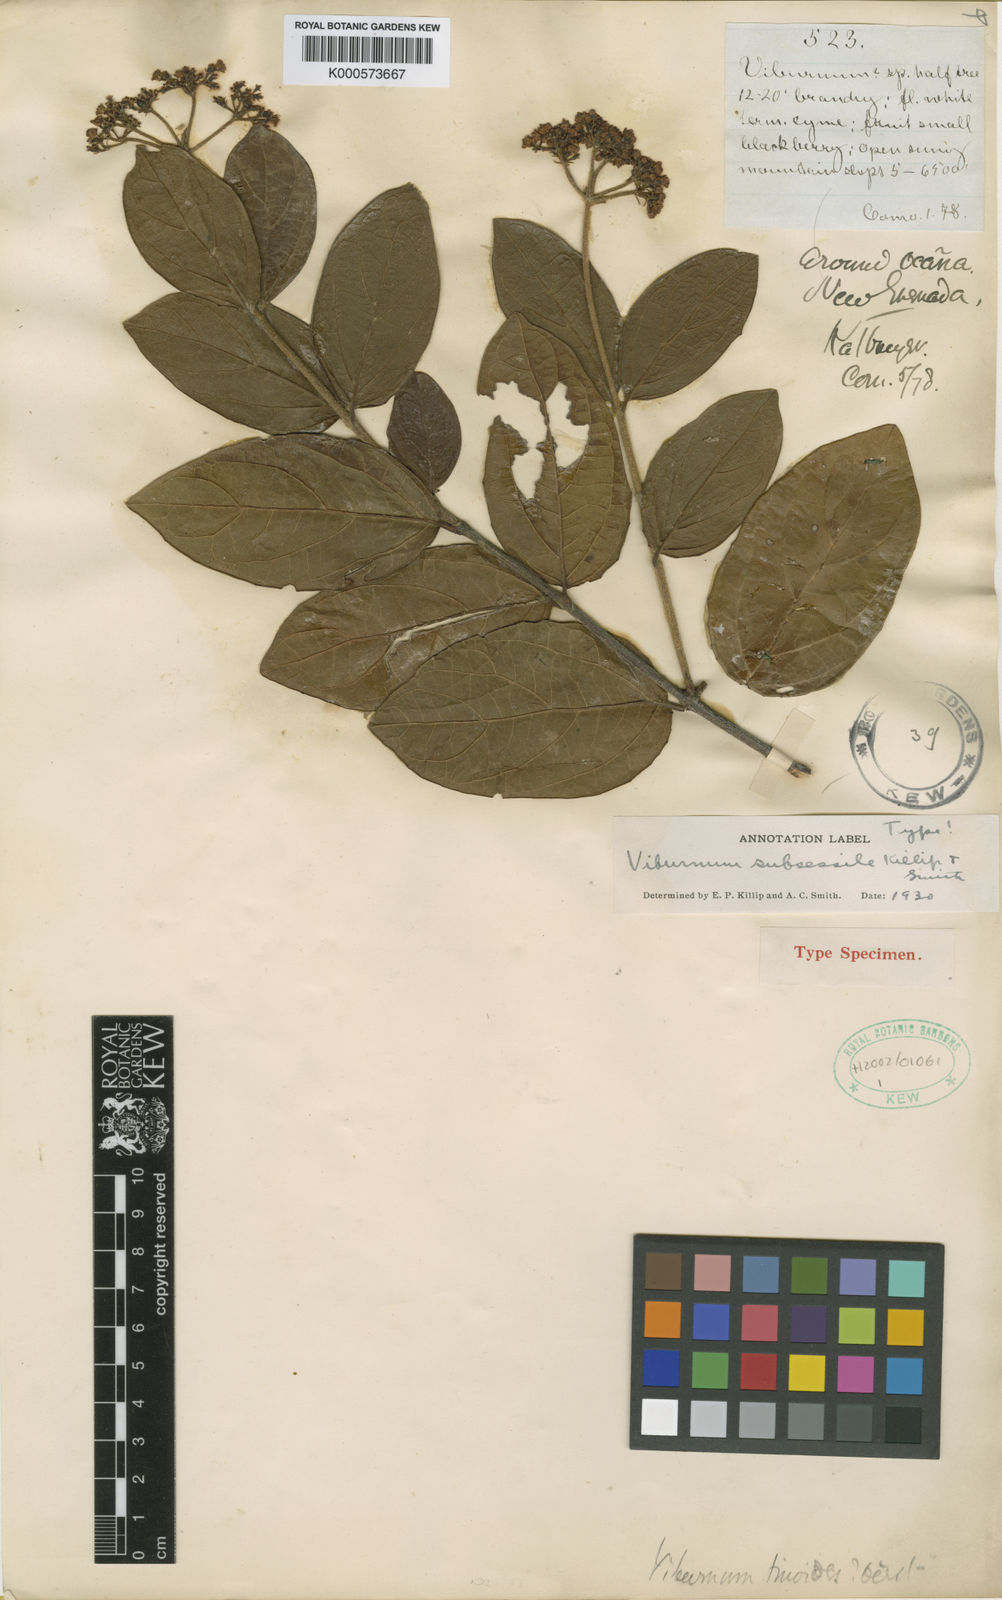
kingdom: Plantae
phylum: Tracheophyta
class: Magnoliopsida
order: Dipsacales
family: Viburnaceae
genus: Viburnum
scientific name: Viburnum subsessile
